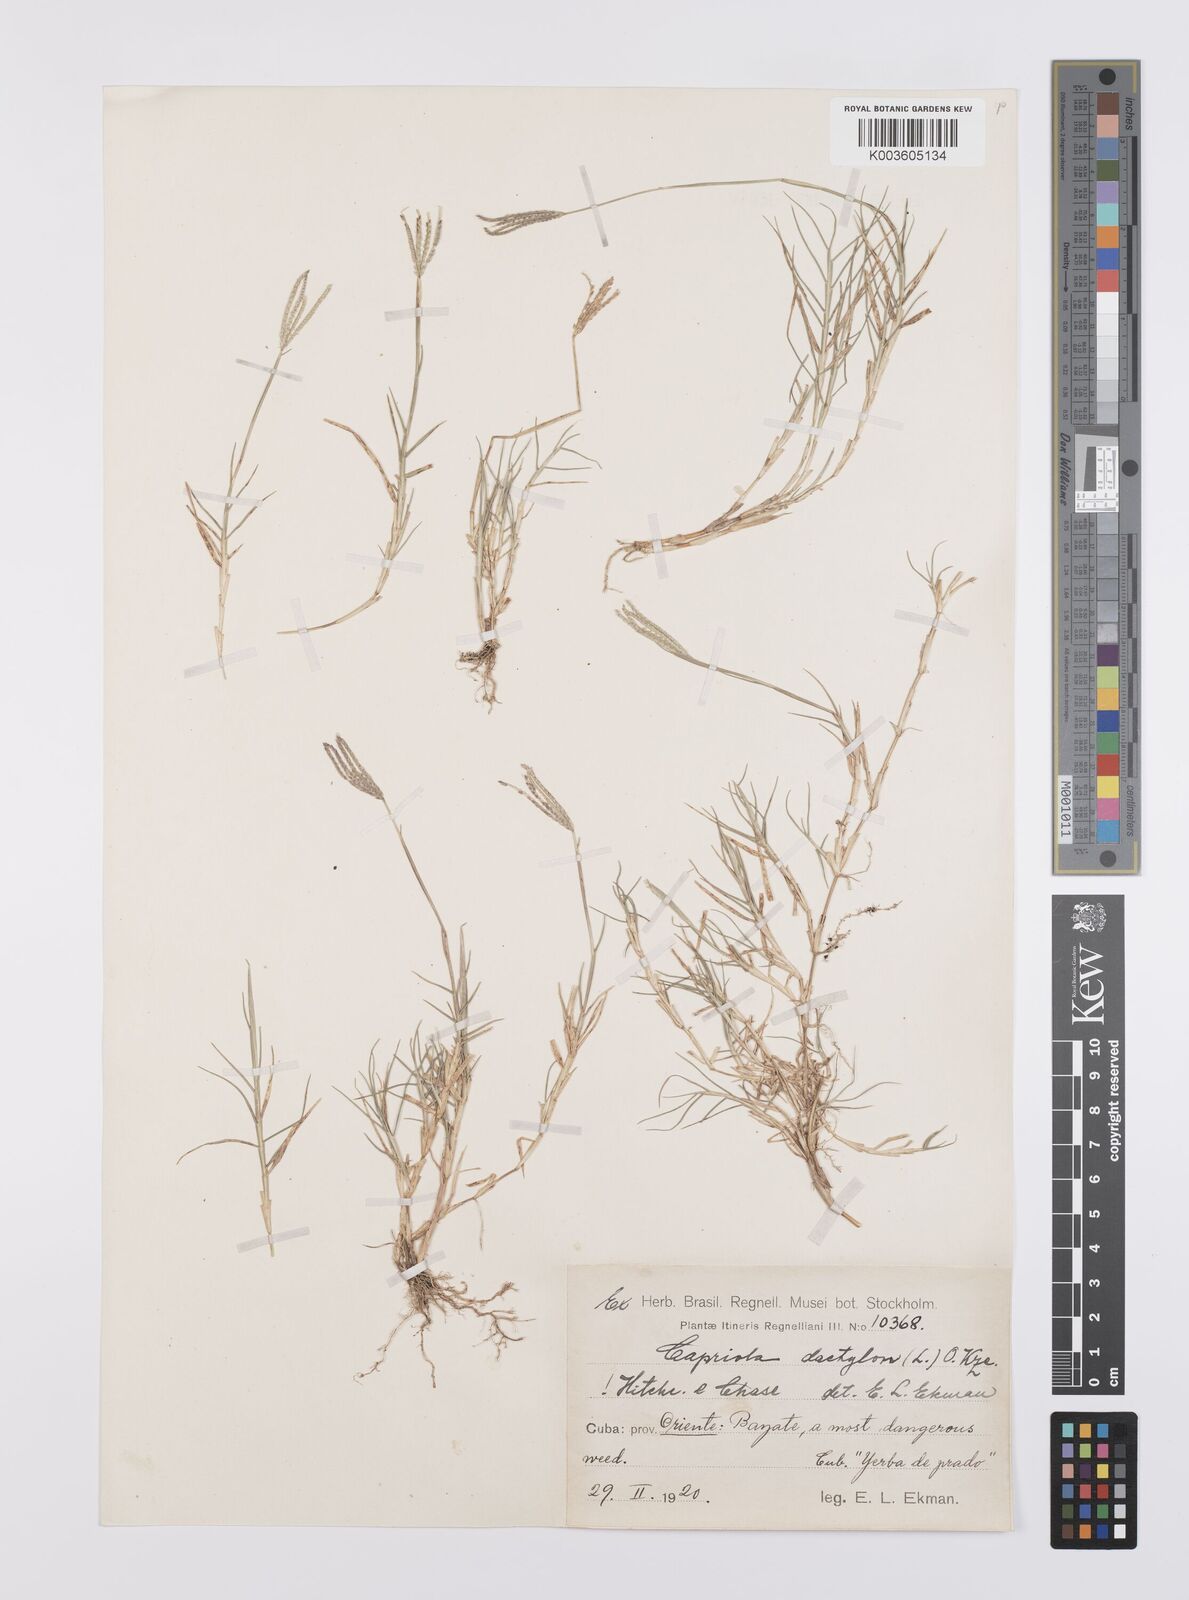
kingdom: Plantae
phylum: Tracheophyta
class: Liliopsida
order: Poales
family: Poaceae
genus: Cynodon
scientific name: Cynodon dactylon
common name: Bermuda grass
